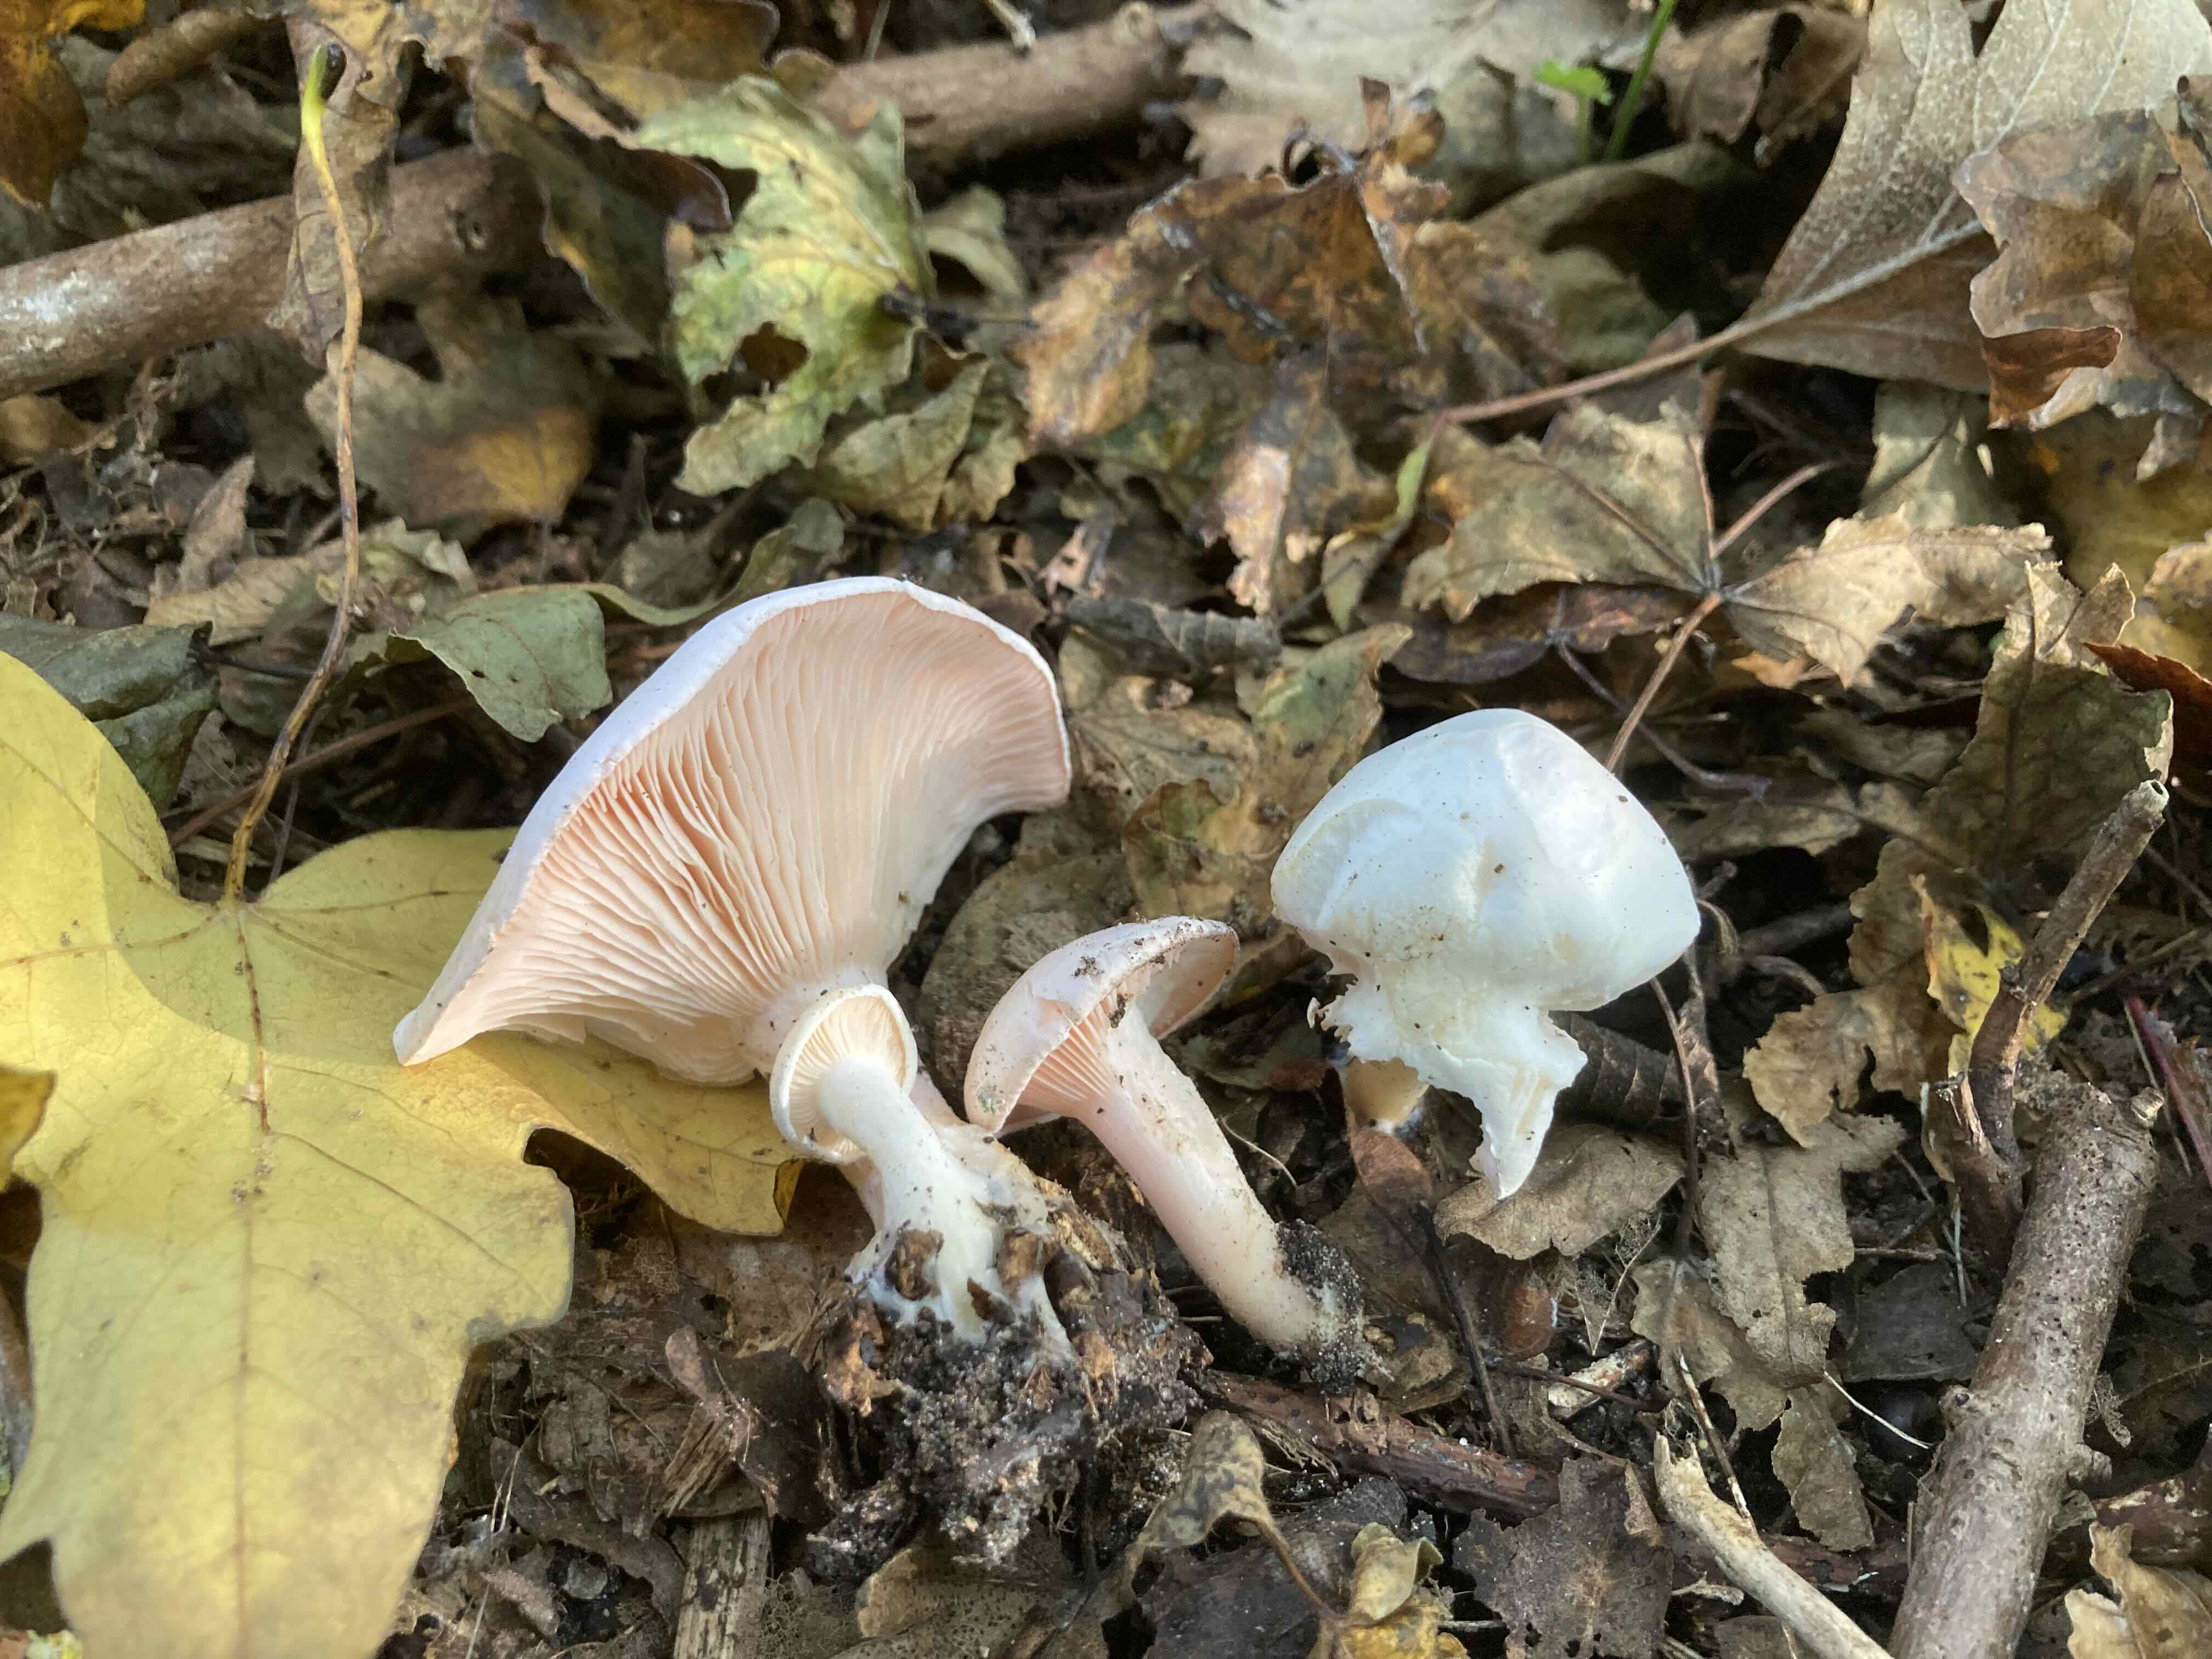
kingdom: Fungi
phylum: Basidiomycota
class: Agaricomycetes
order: Agaricales
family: Tricholomataceae
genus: Pseudoclitopilus
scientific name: Pseudoclitopilus rhodoleucus
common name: rosabladet tragtridderhat
